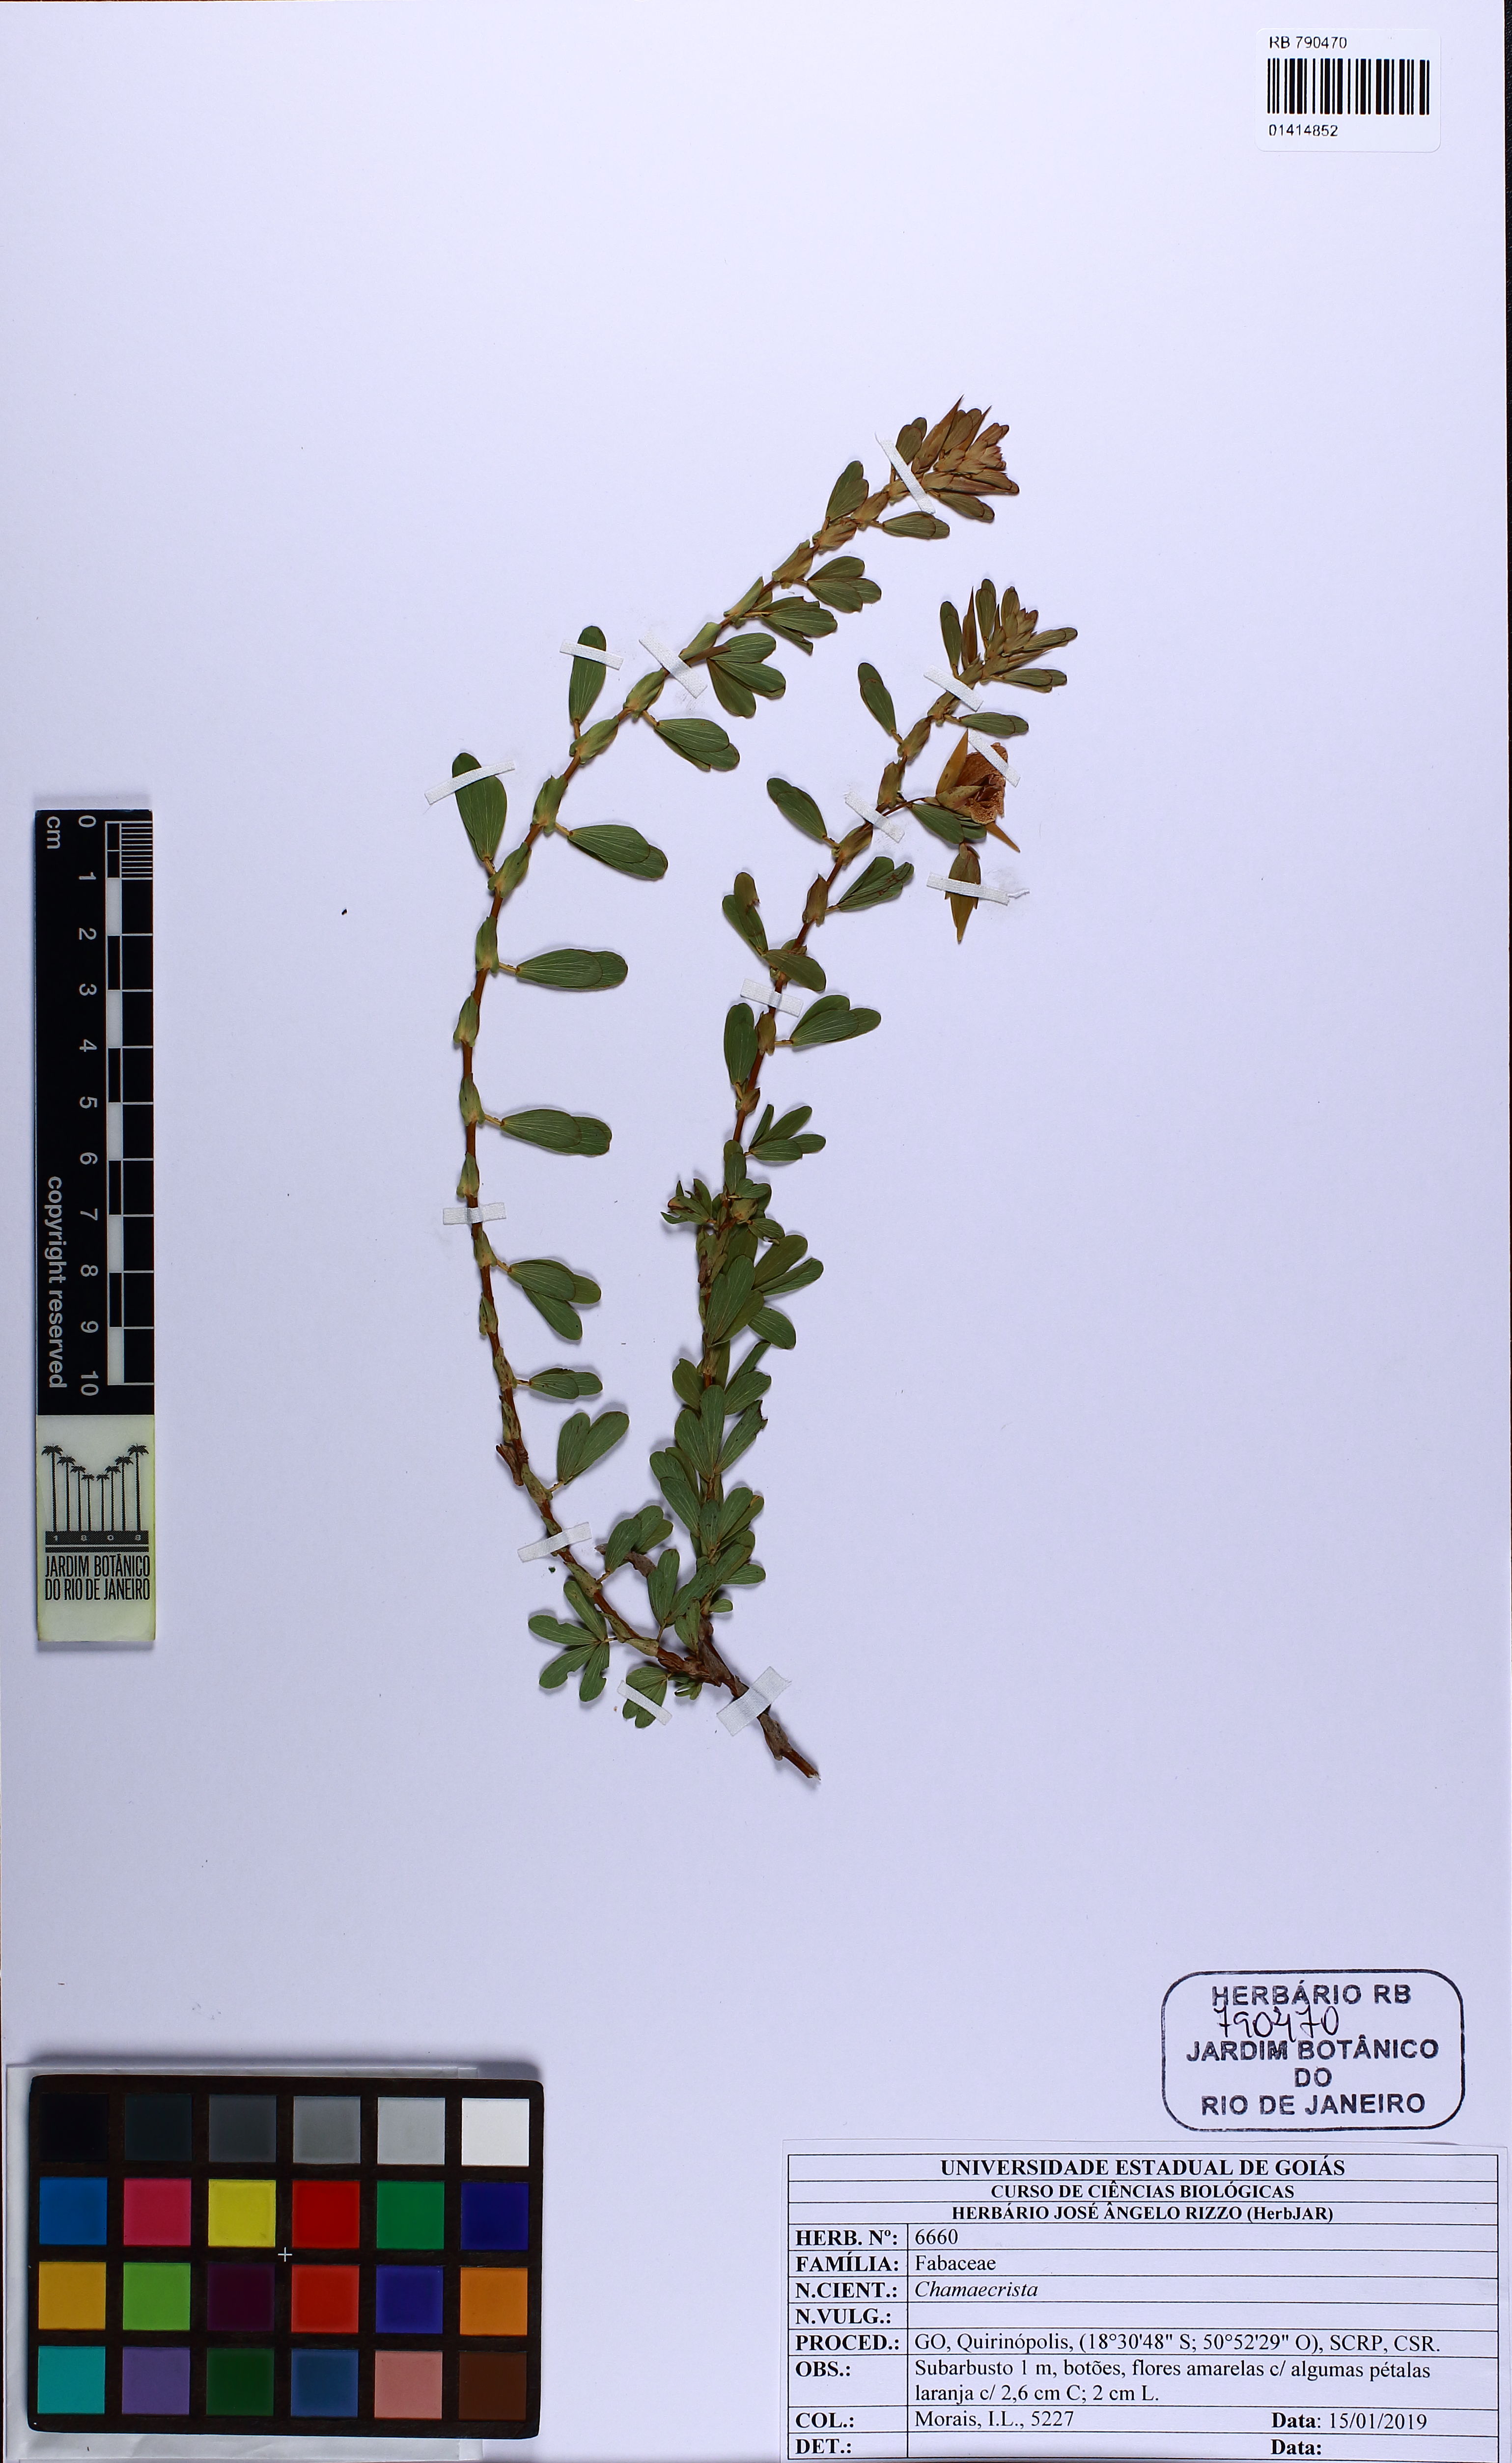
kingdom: Plantae
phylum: Tracheophyta
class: Magnoliopsida
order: Fabales
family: Fabaceae
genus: Chamaecrista
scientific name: Chamaecrista
